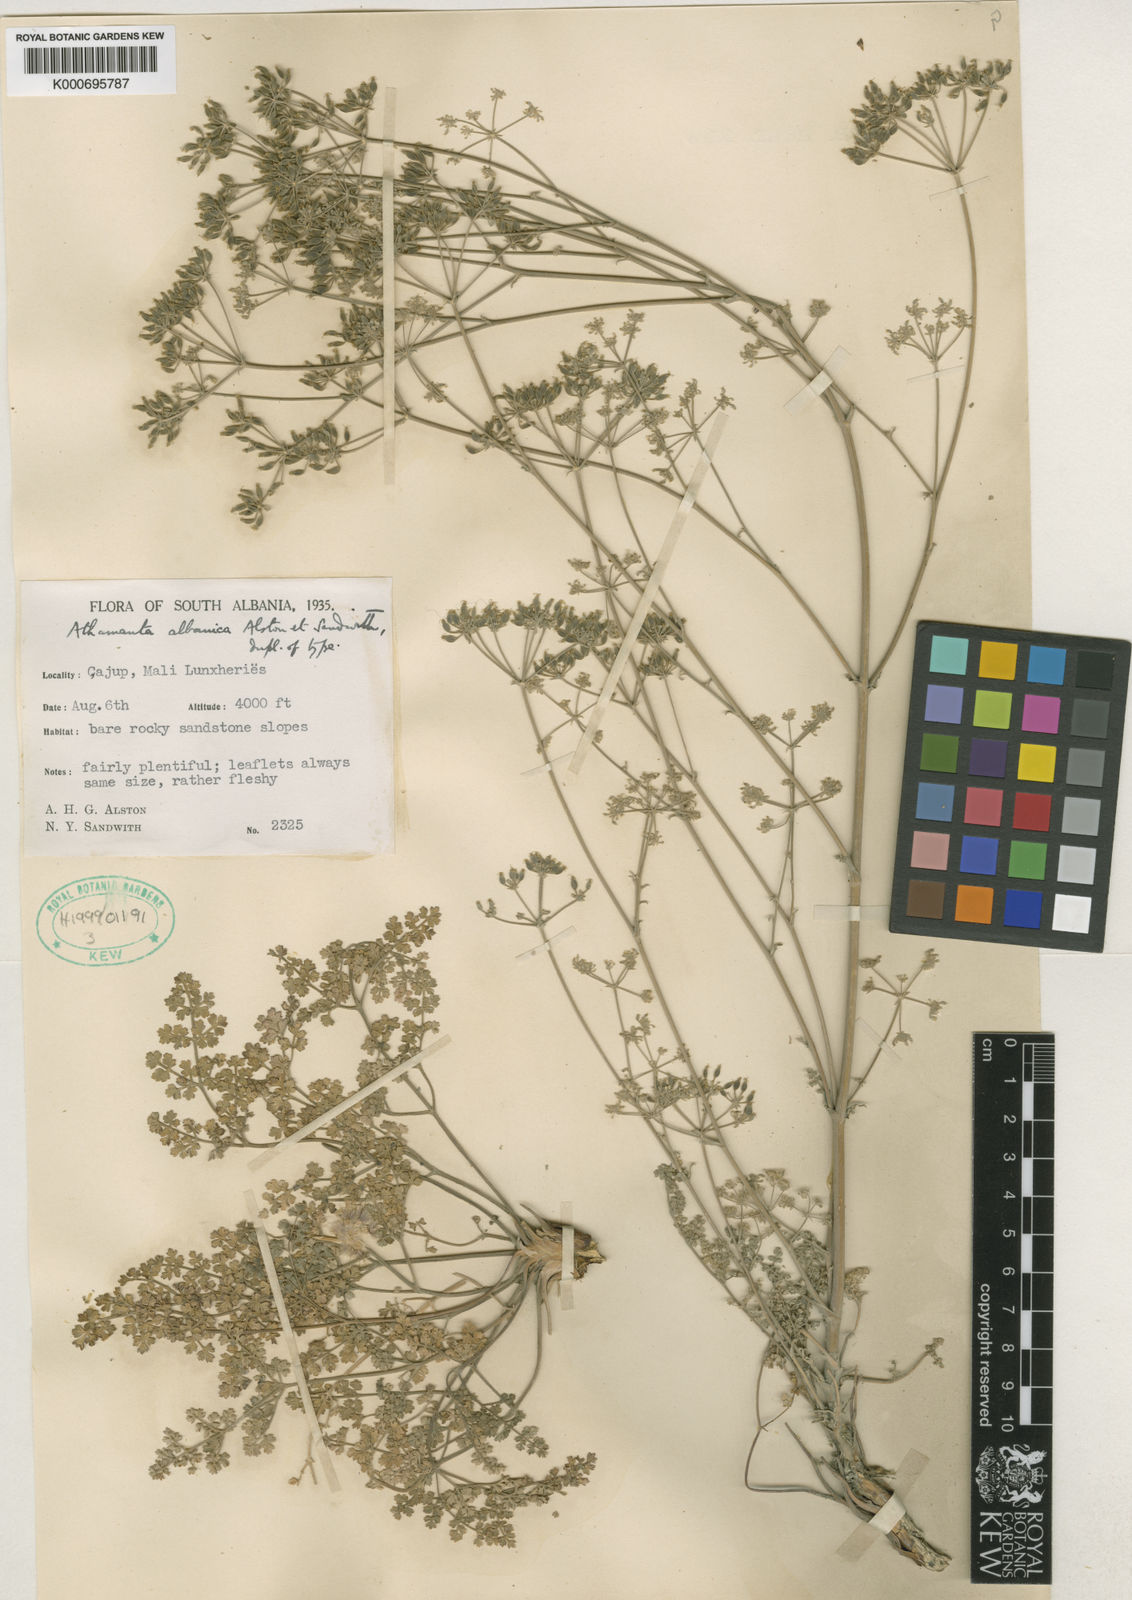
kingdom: Plantae
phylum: Tracheophyta
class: Magnoliopsida
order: Apiales
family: Apiaceae
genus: Bubon
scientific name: Bubon macedonicum
